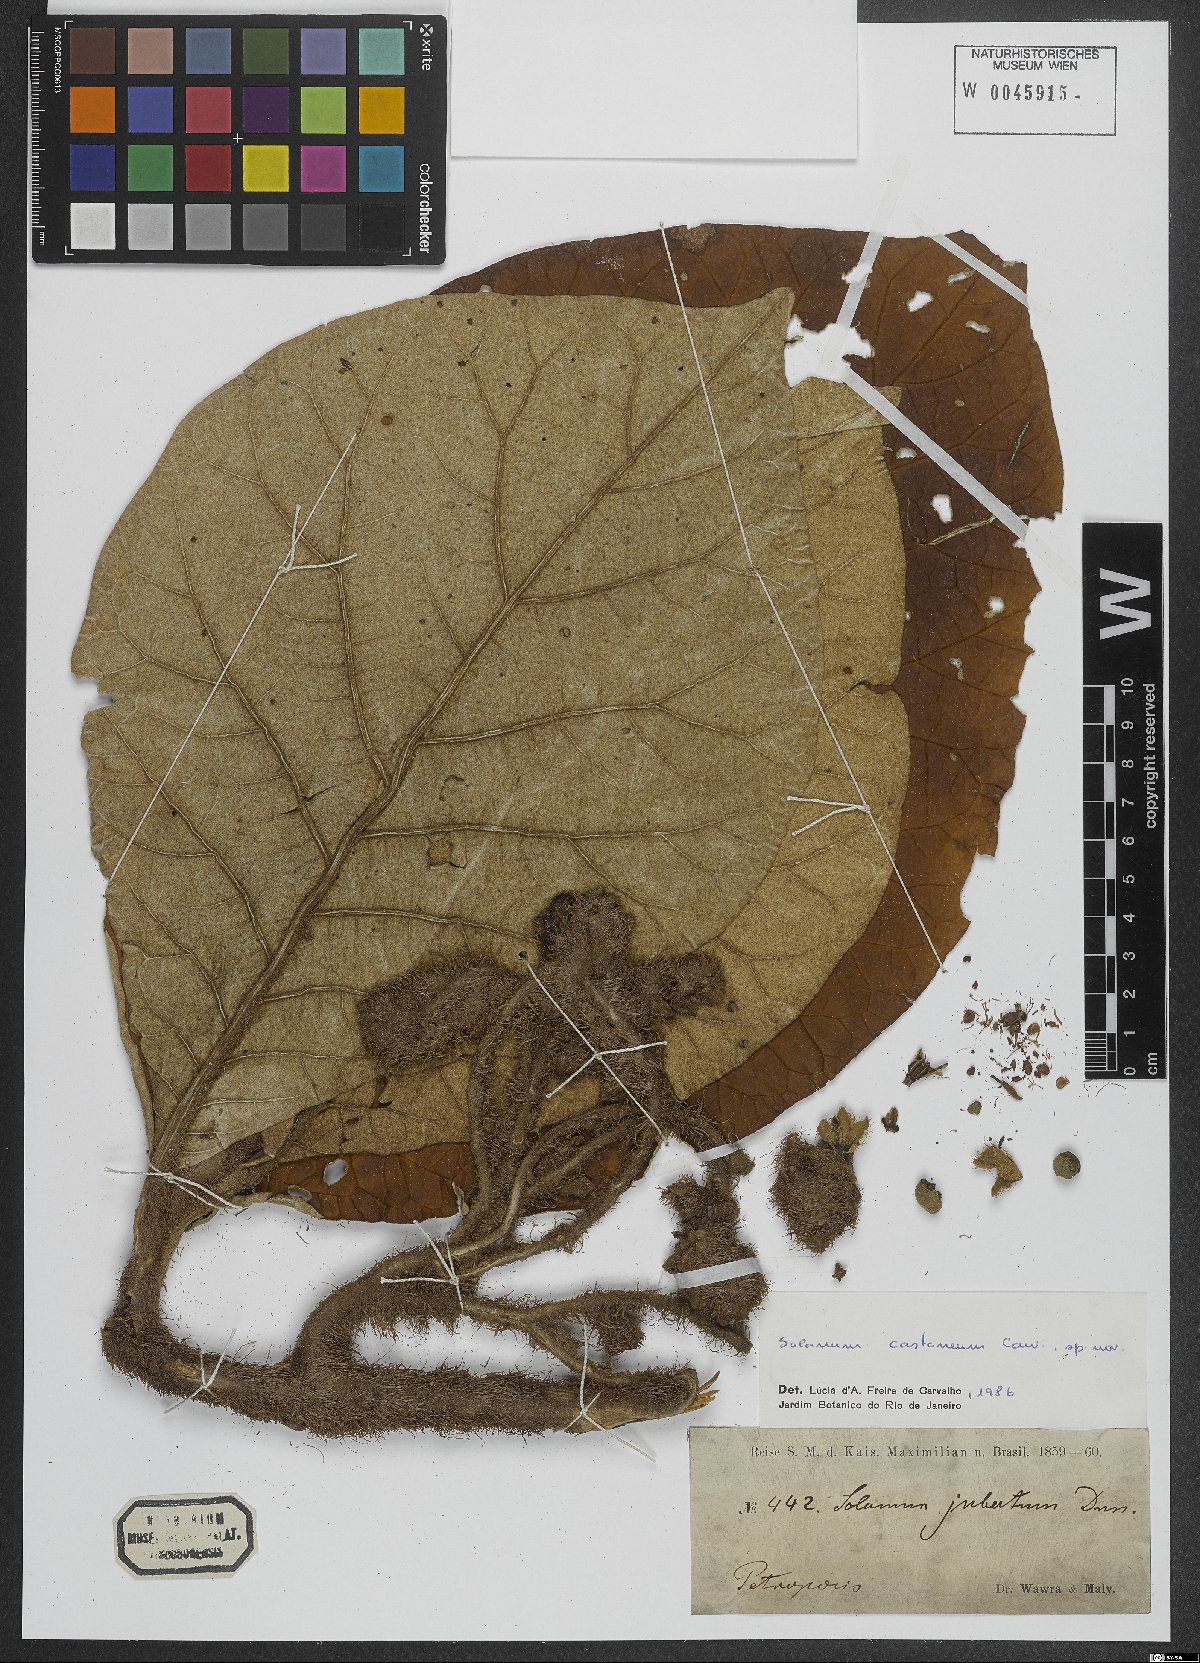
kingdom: Plantae
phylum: Tracheophyta
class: Magnoliopsida
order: Solanales
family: Solanaceae
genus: Solanum
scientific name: Solanum castaneum
